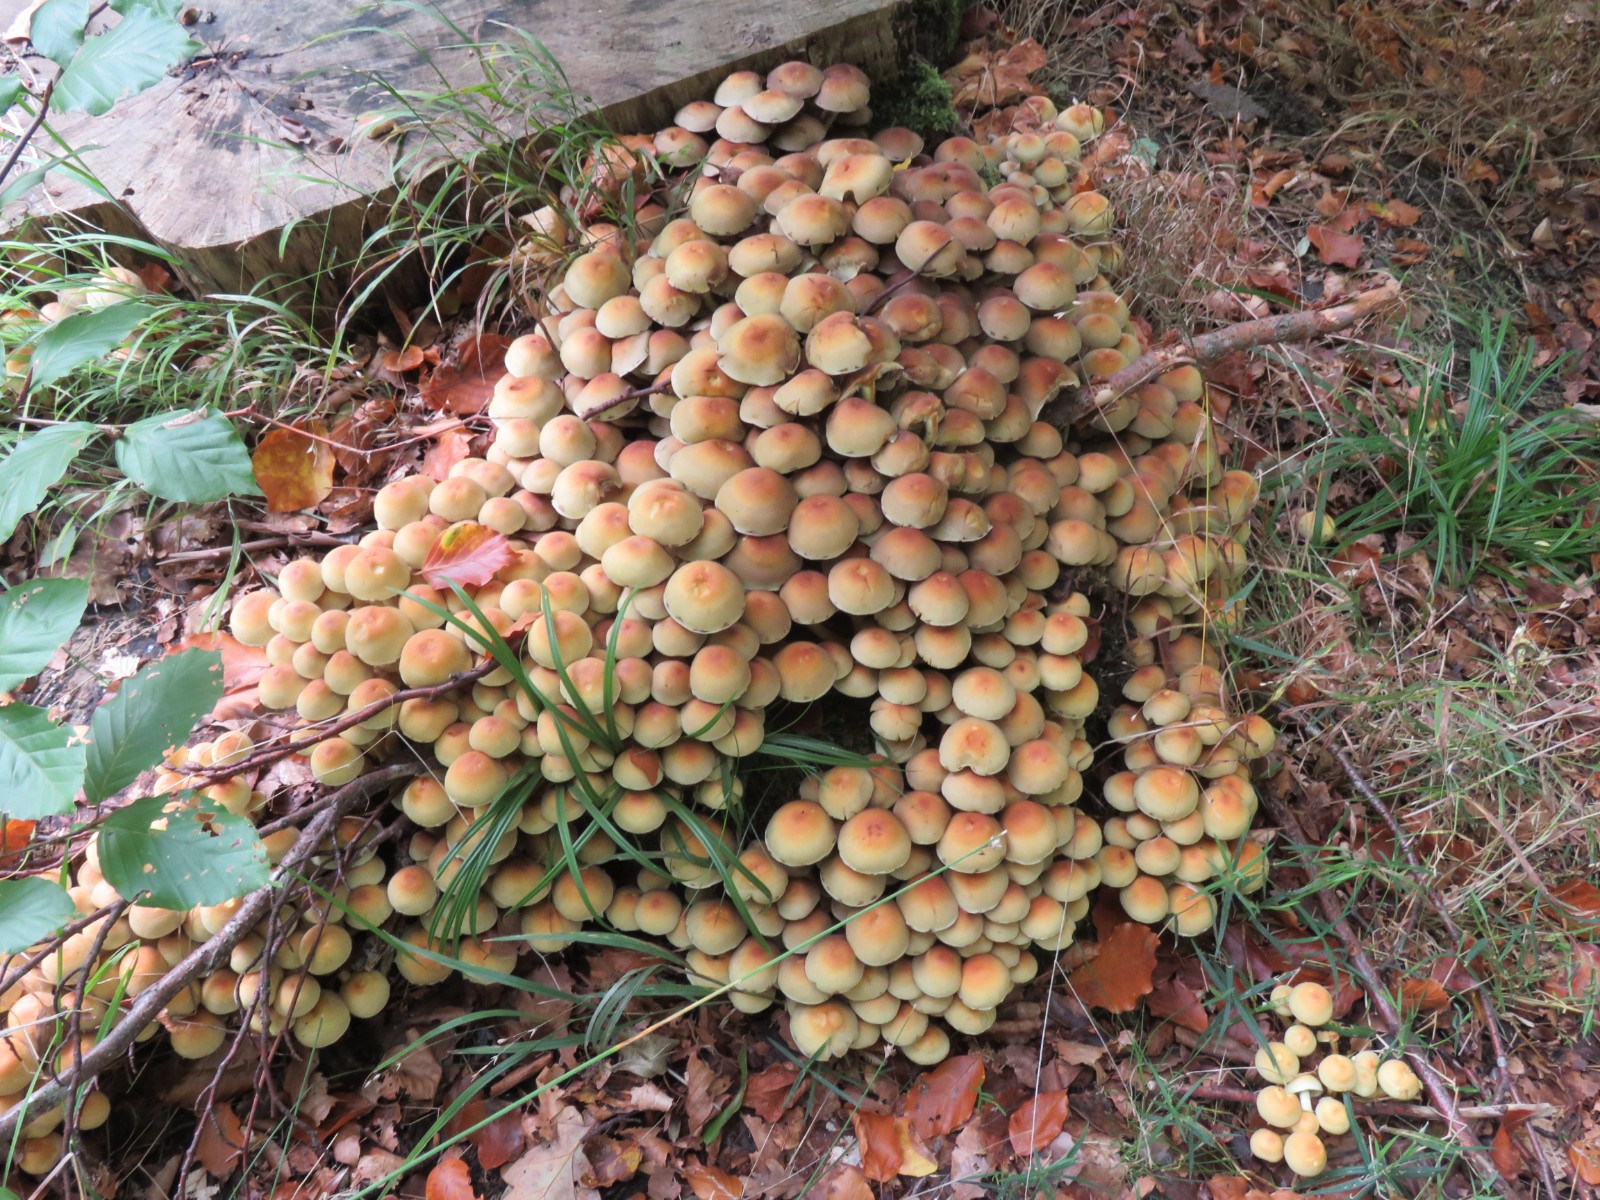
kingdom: Fungi
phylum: Basidiomycota
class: Agaricomycetes
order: Agaricales
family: Strophariaceae
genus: Hypholoma
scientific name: Hypholoma fasciculare
